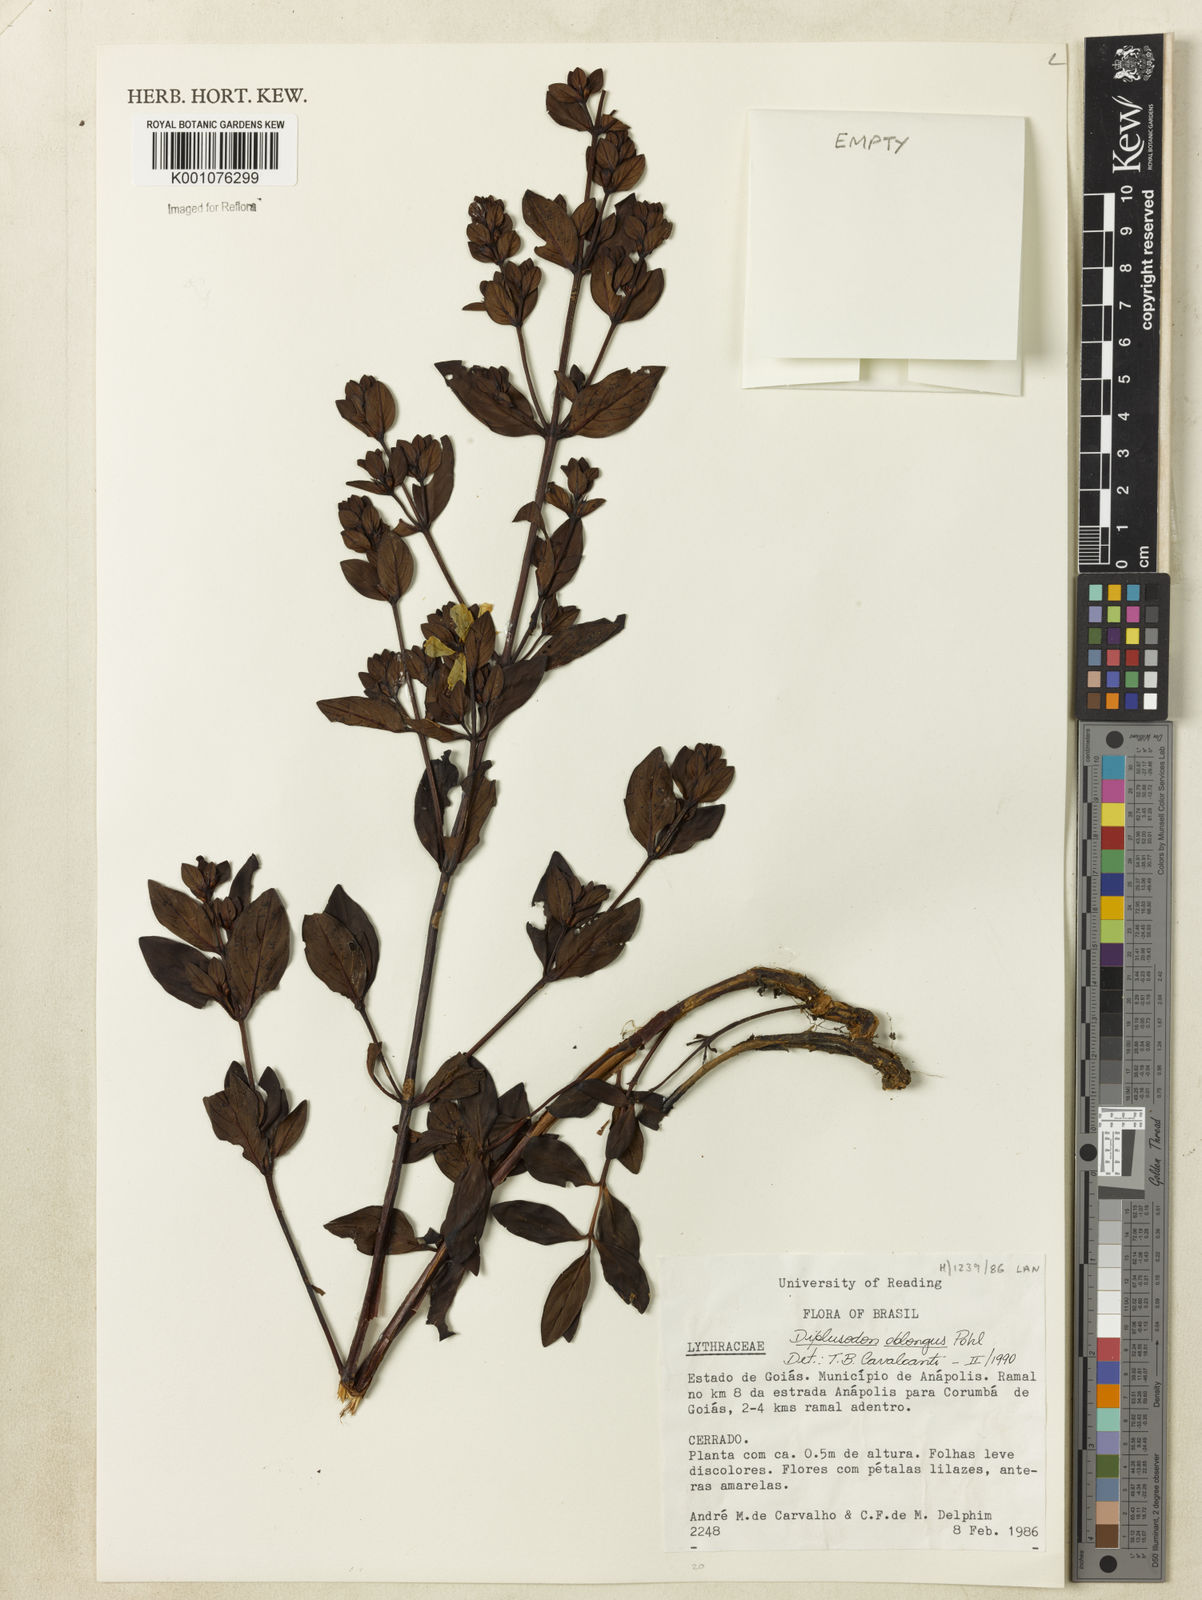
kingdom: Plantae
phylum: Tracheophyta
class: Magnoliopsida
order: Myrtales
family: Lythraceae
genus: Diplusodon
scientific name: Diplusodon oblongus
